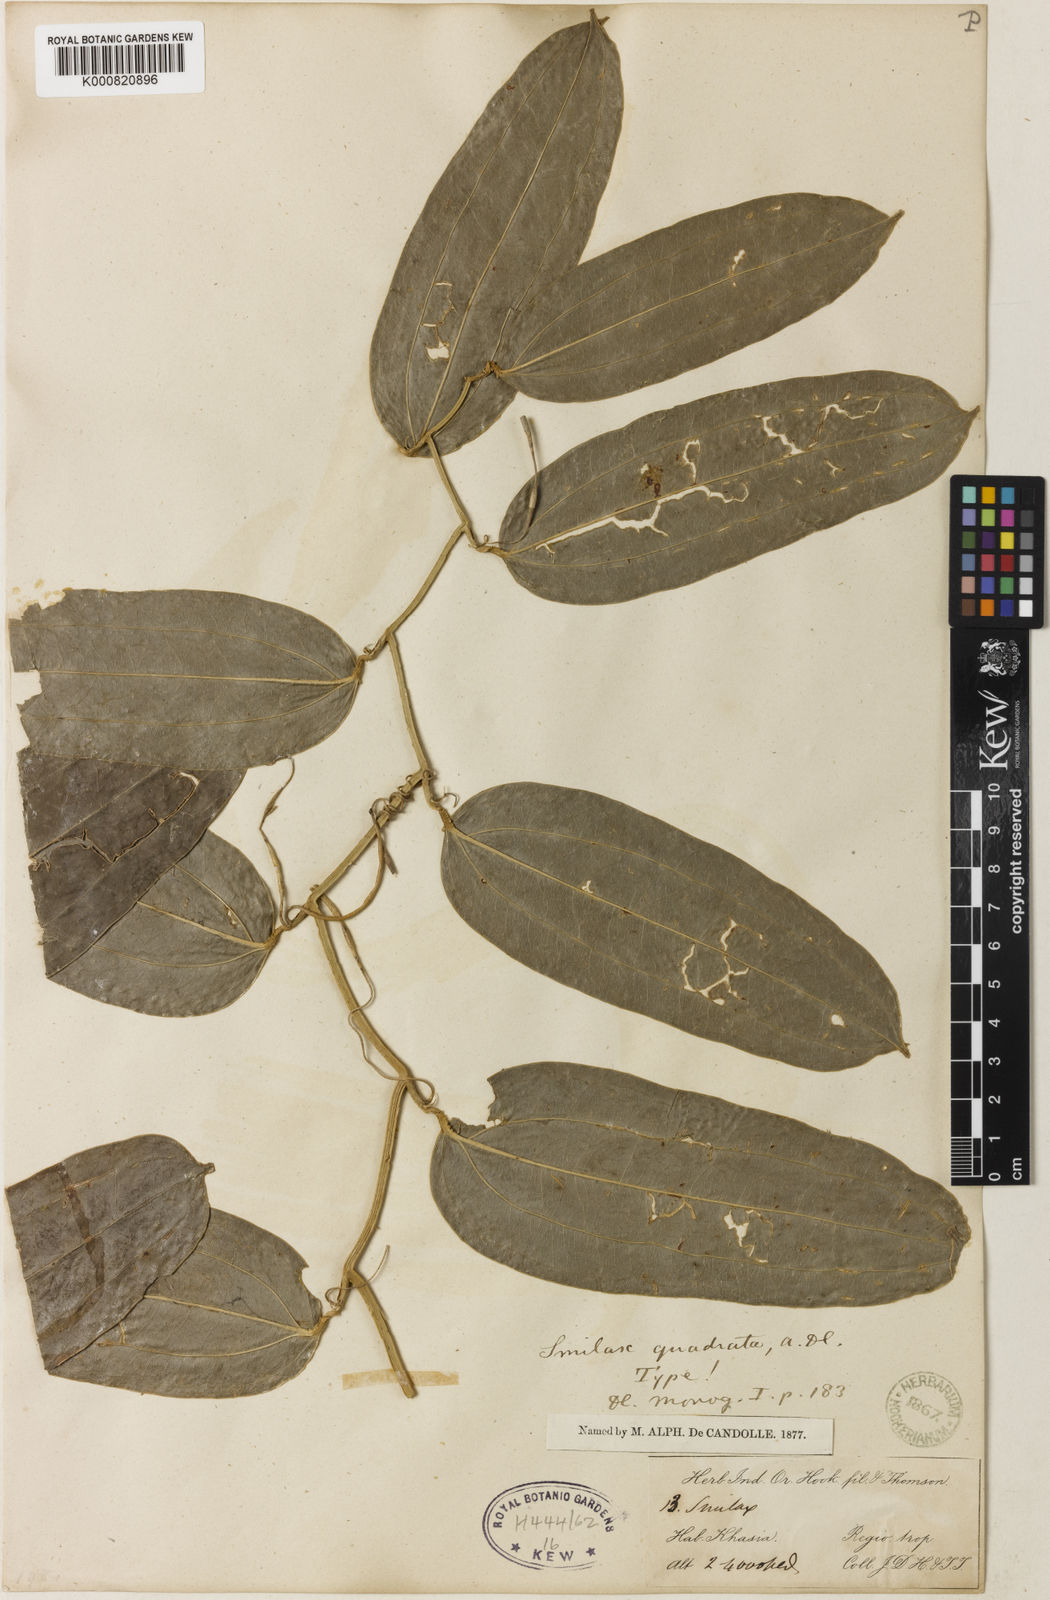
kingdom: Plantae
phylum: Tracheophyta
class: Liliopsida
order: Liliales
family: Smilacaceae
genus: Smilax
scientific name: Smilax quadrata
